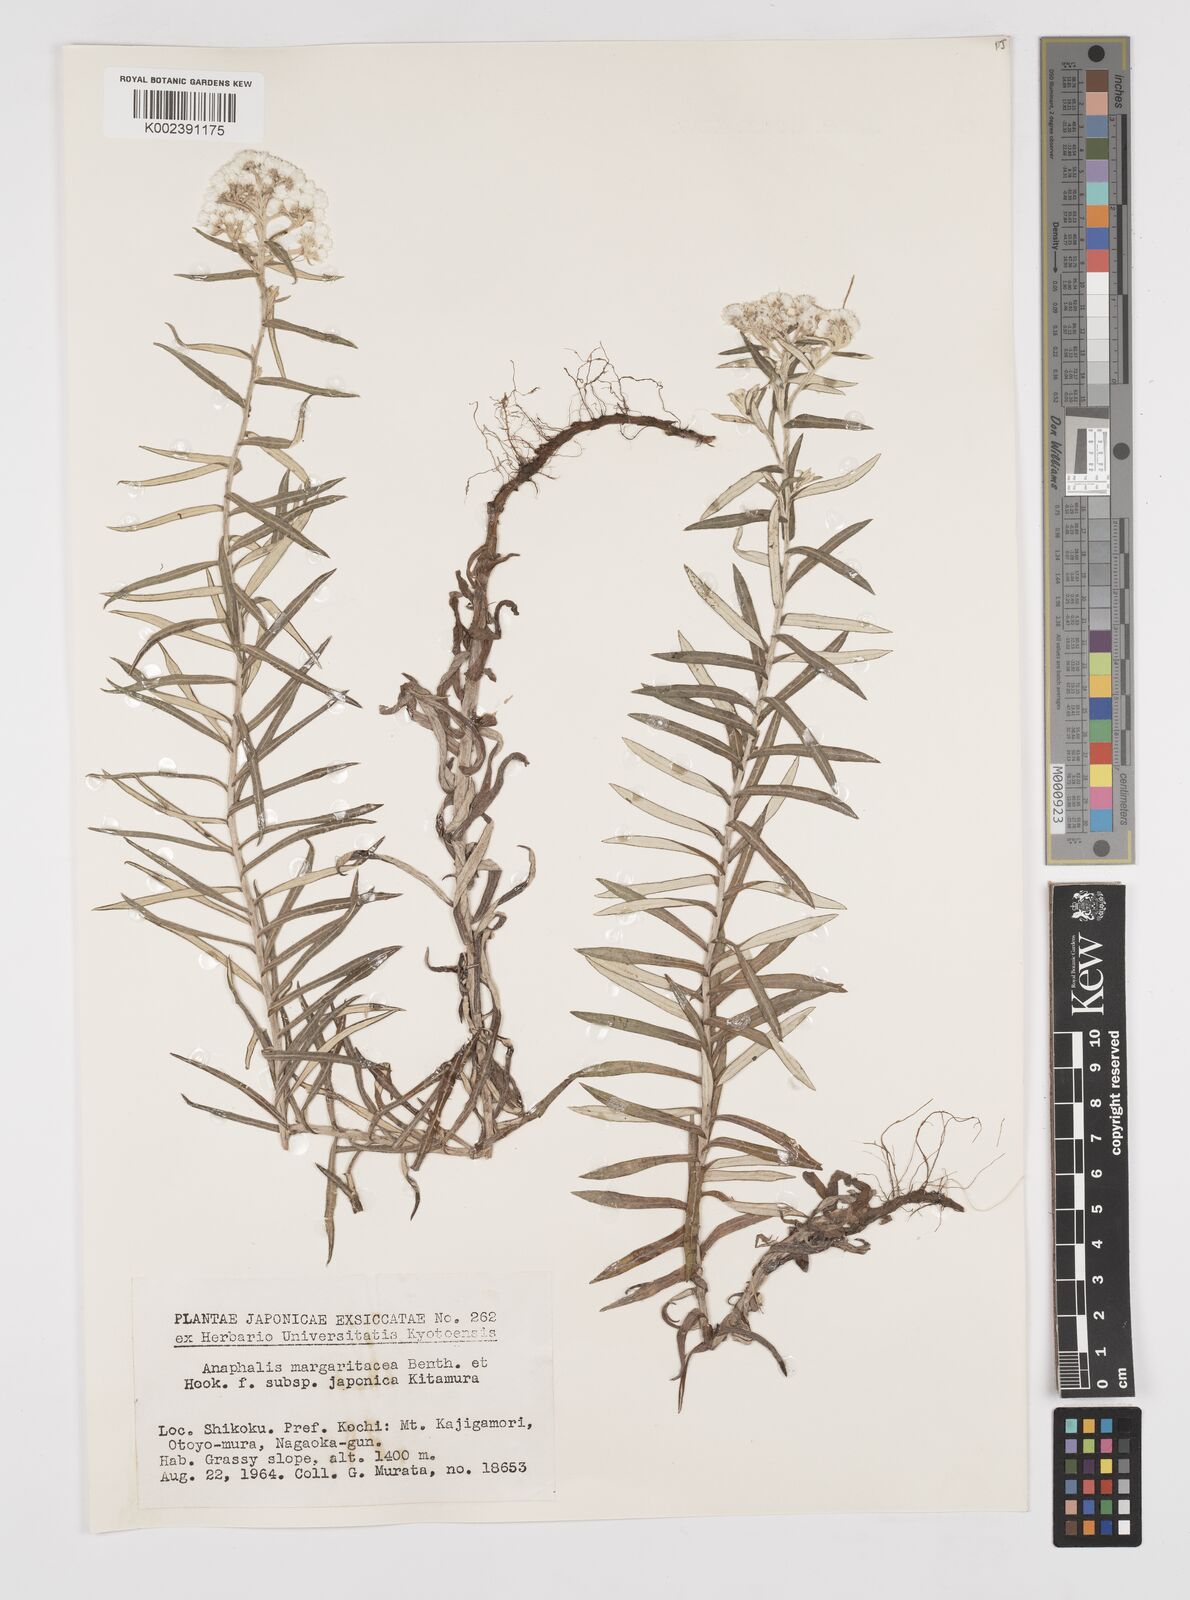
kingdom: Plantae
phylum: Tracheophyta
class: Magnoliopsida
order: Asterales
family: Asteraceae
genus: Anaphalis
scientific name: Anaphalis margaritacea
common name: Pearly everlasting
